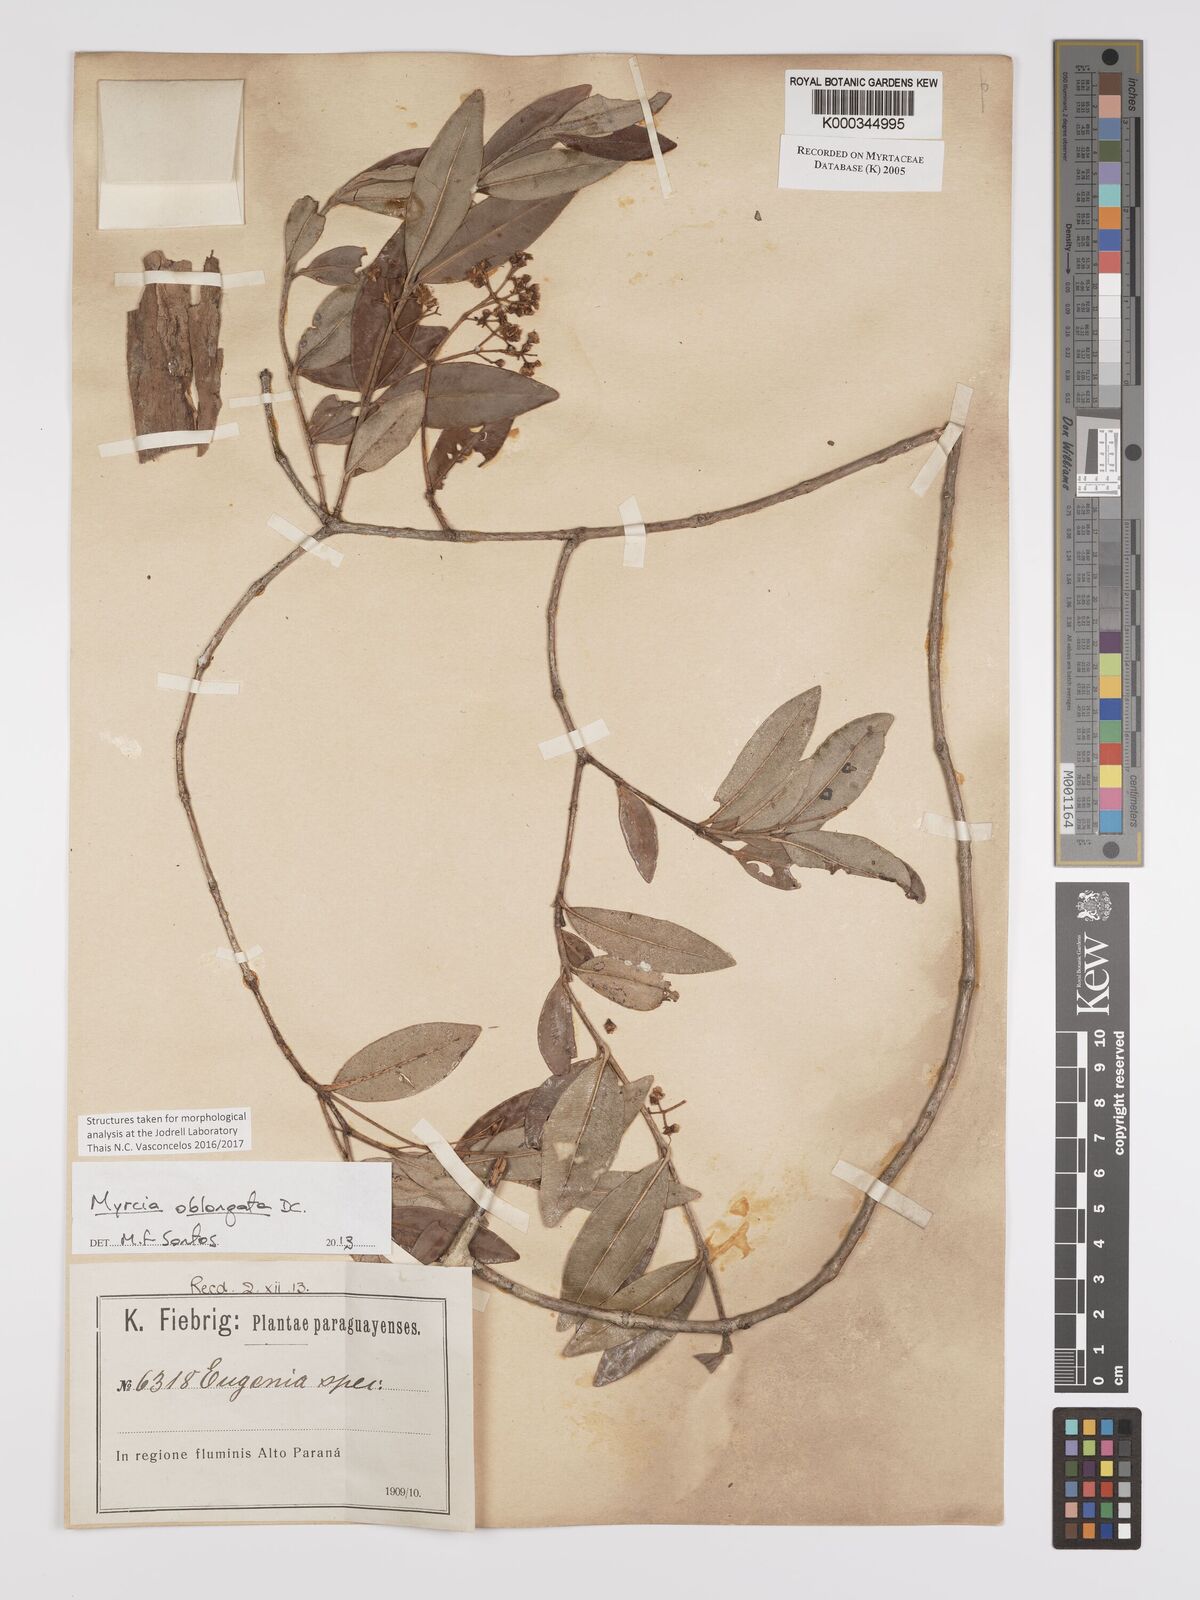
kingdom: Plantae
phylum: Tracheophyta
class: Magnoliopsida
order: Myrtales
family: Myrtaceae
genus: Myrcia
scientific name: Myrcia
